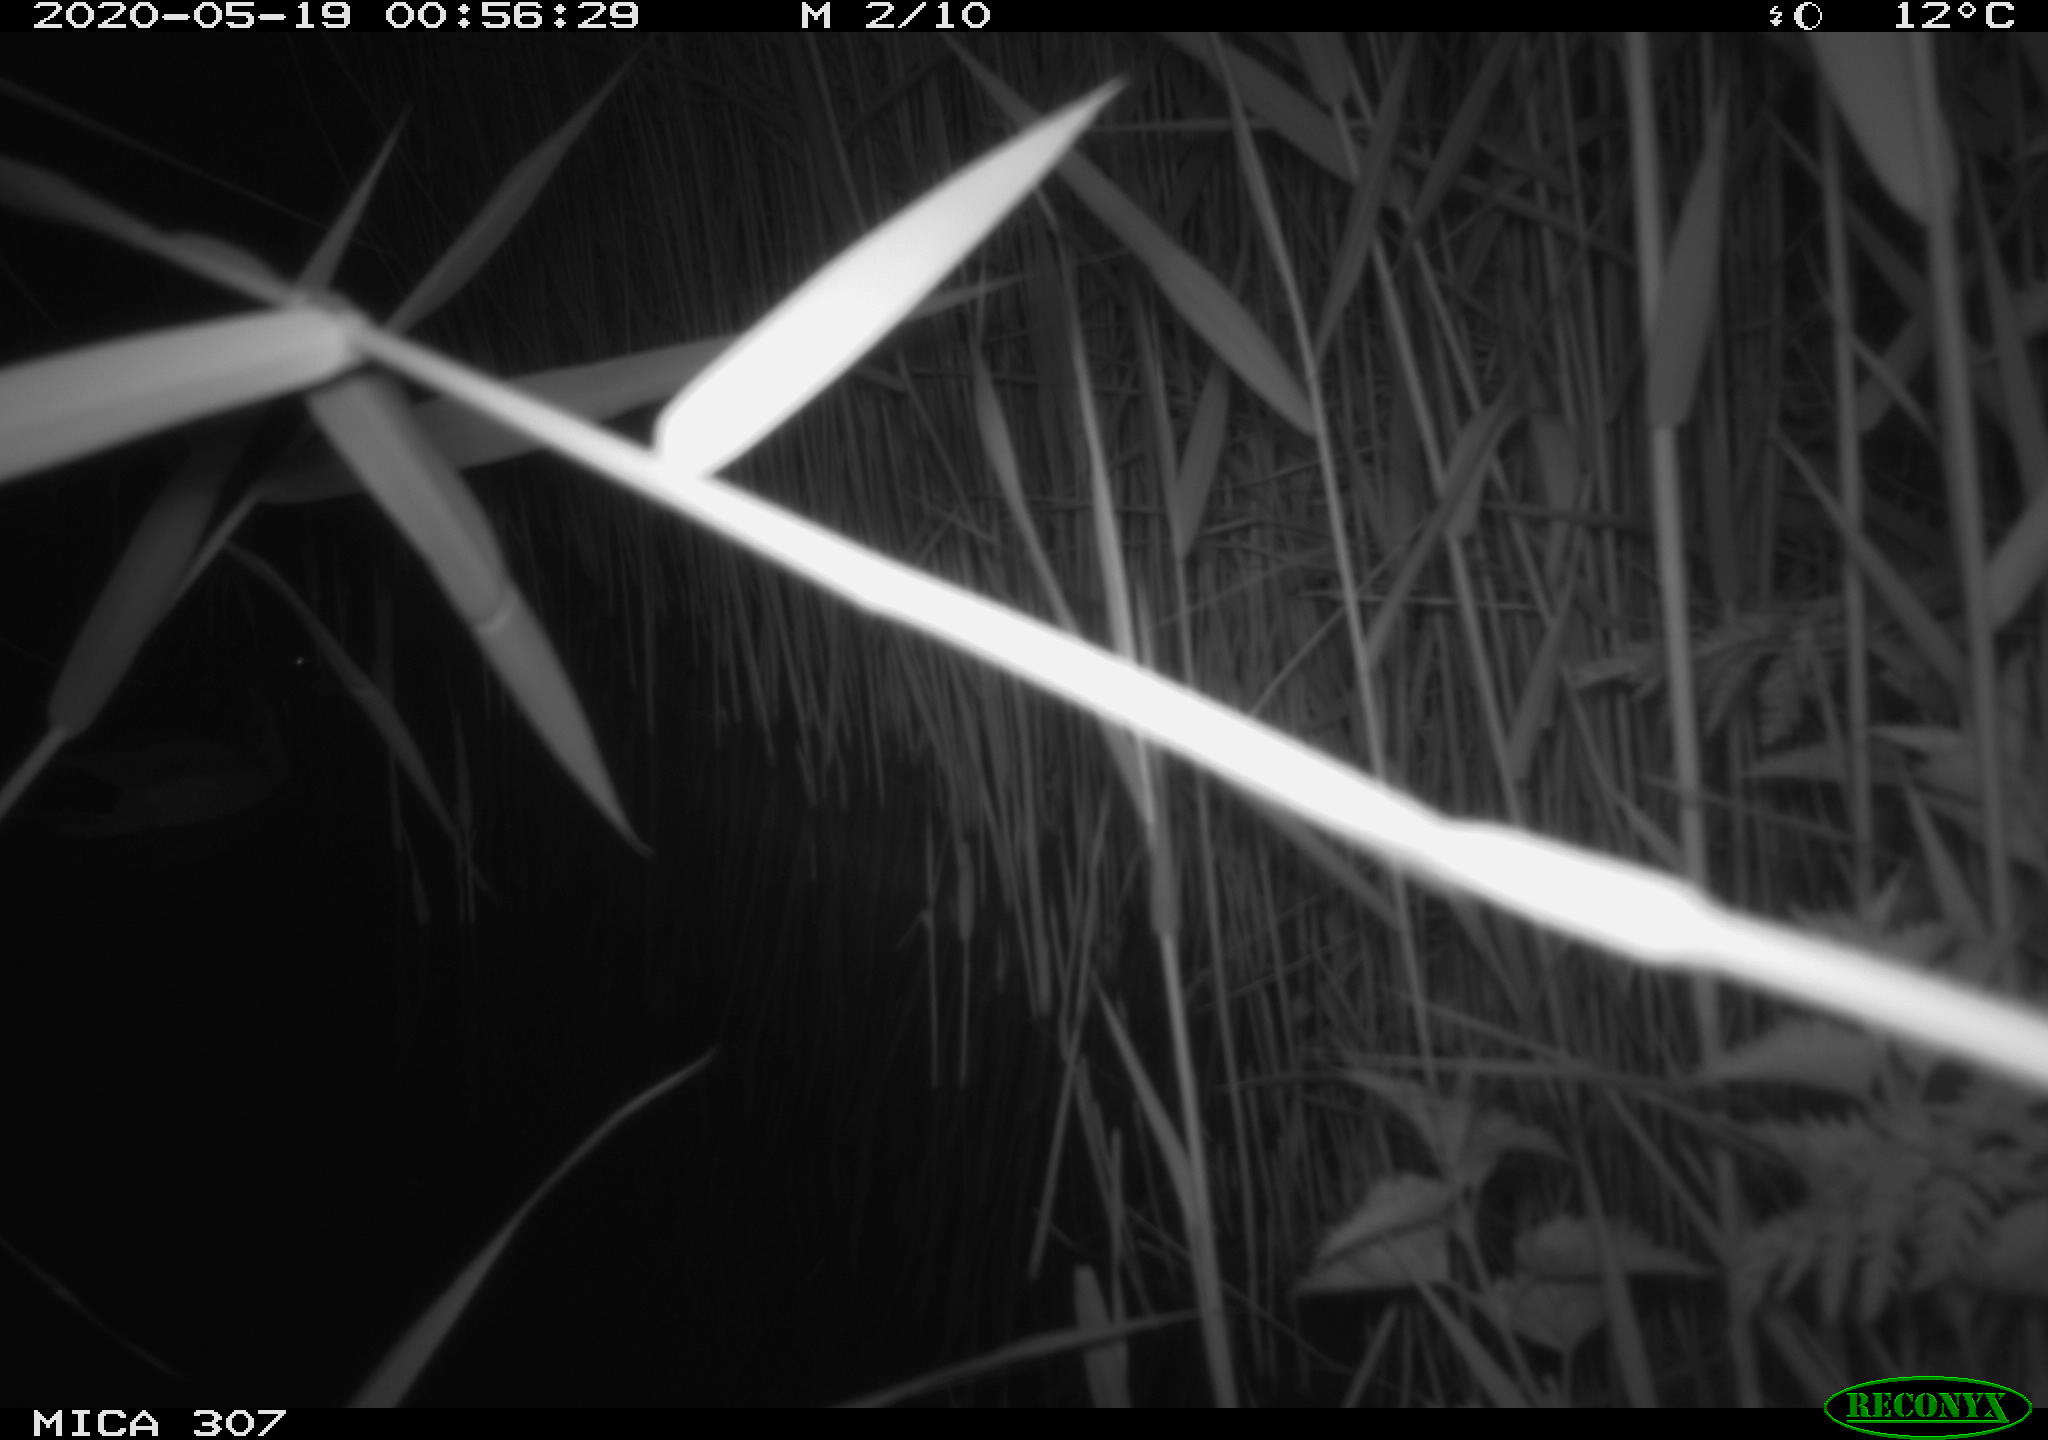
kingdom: Animalia
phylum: Chordata
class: Aves
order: Anseriformes
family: Anatidae
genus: Anas
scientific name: Anas platyrhynchos
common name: Mallard
